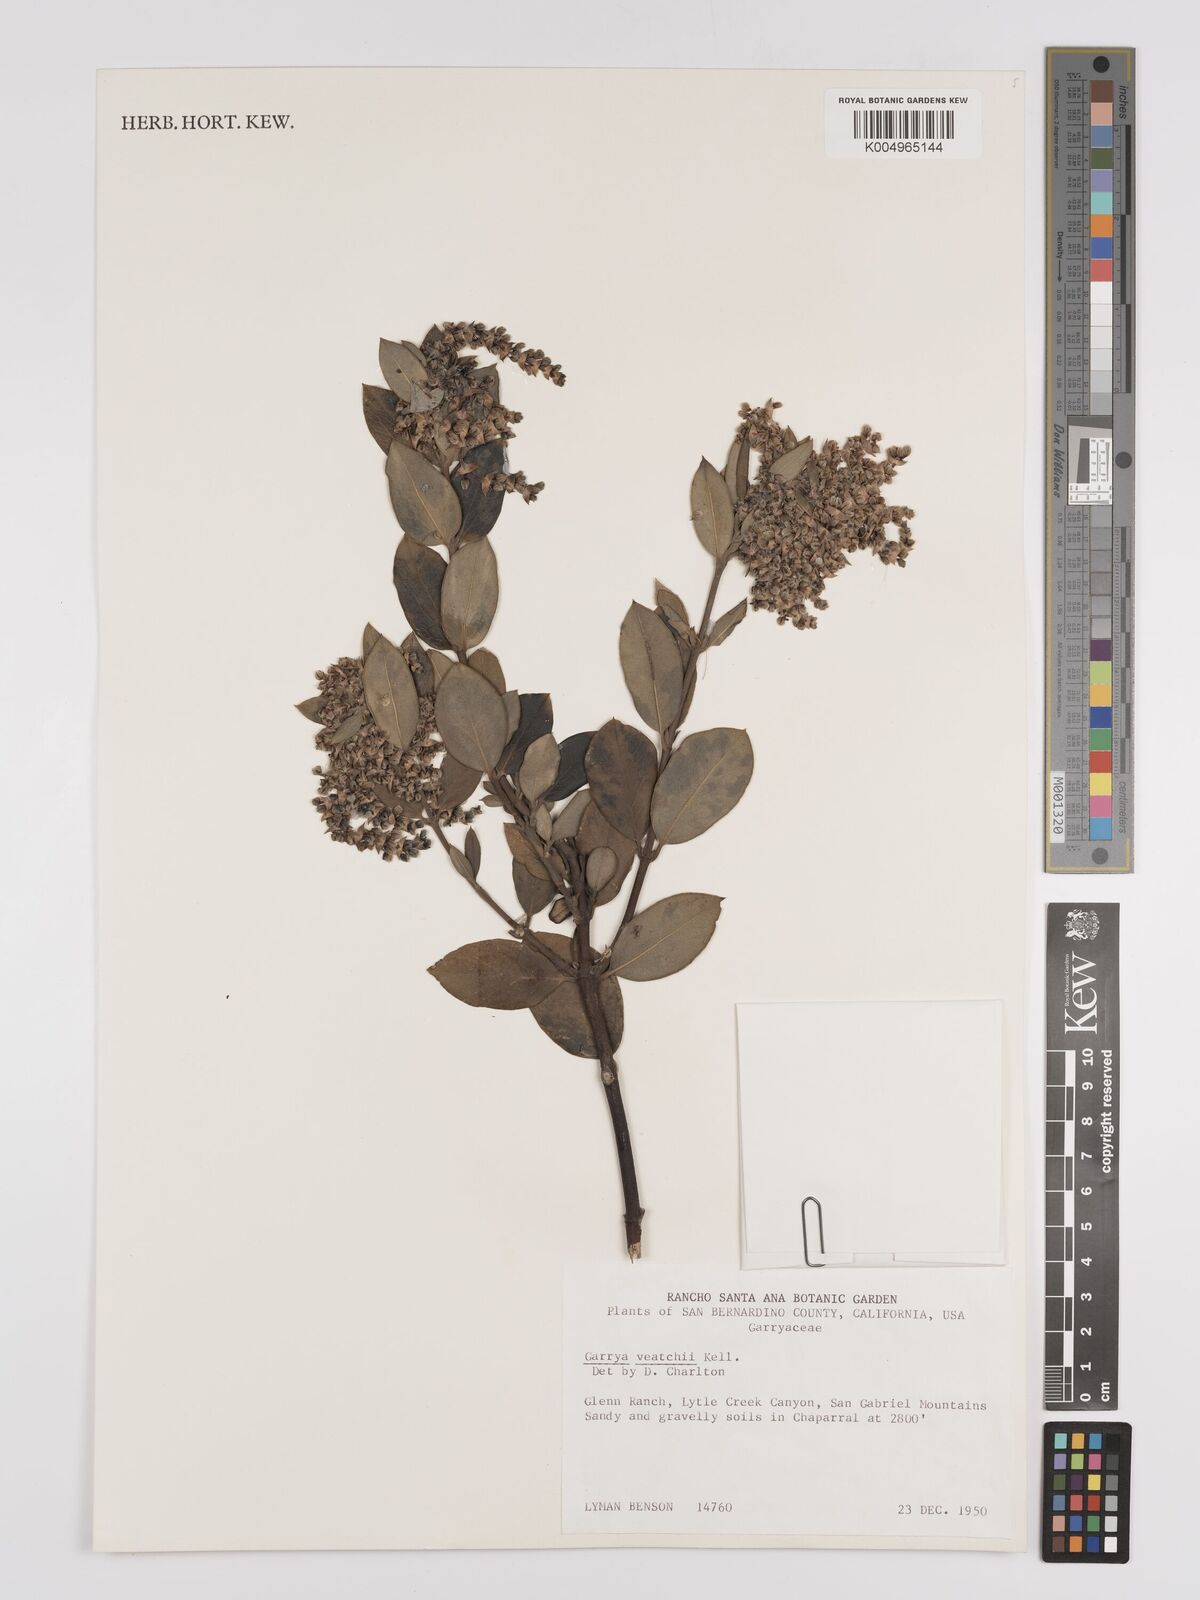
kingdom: Plantae
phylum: Tracheophyta
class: Magnoliopsida
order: Garryales
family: Garryaceae
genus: Garrya
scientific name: Garrya veatchii
